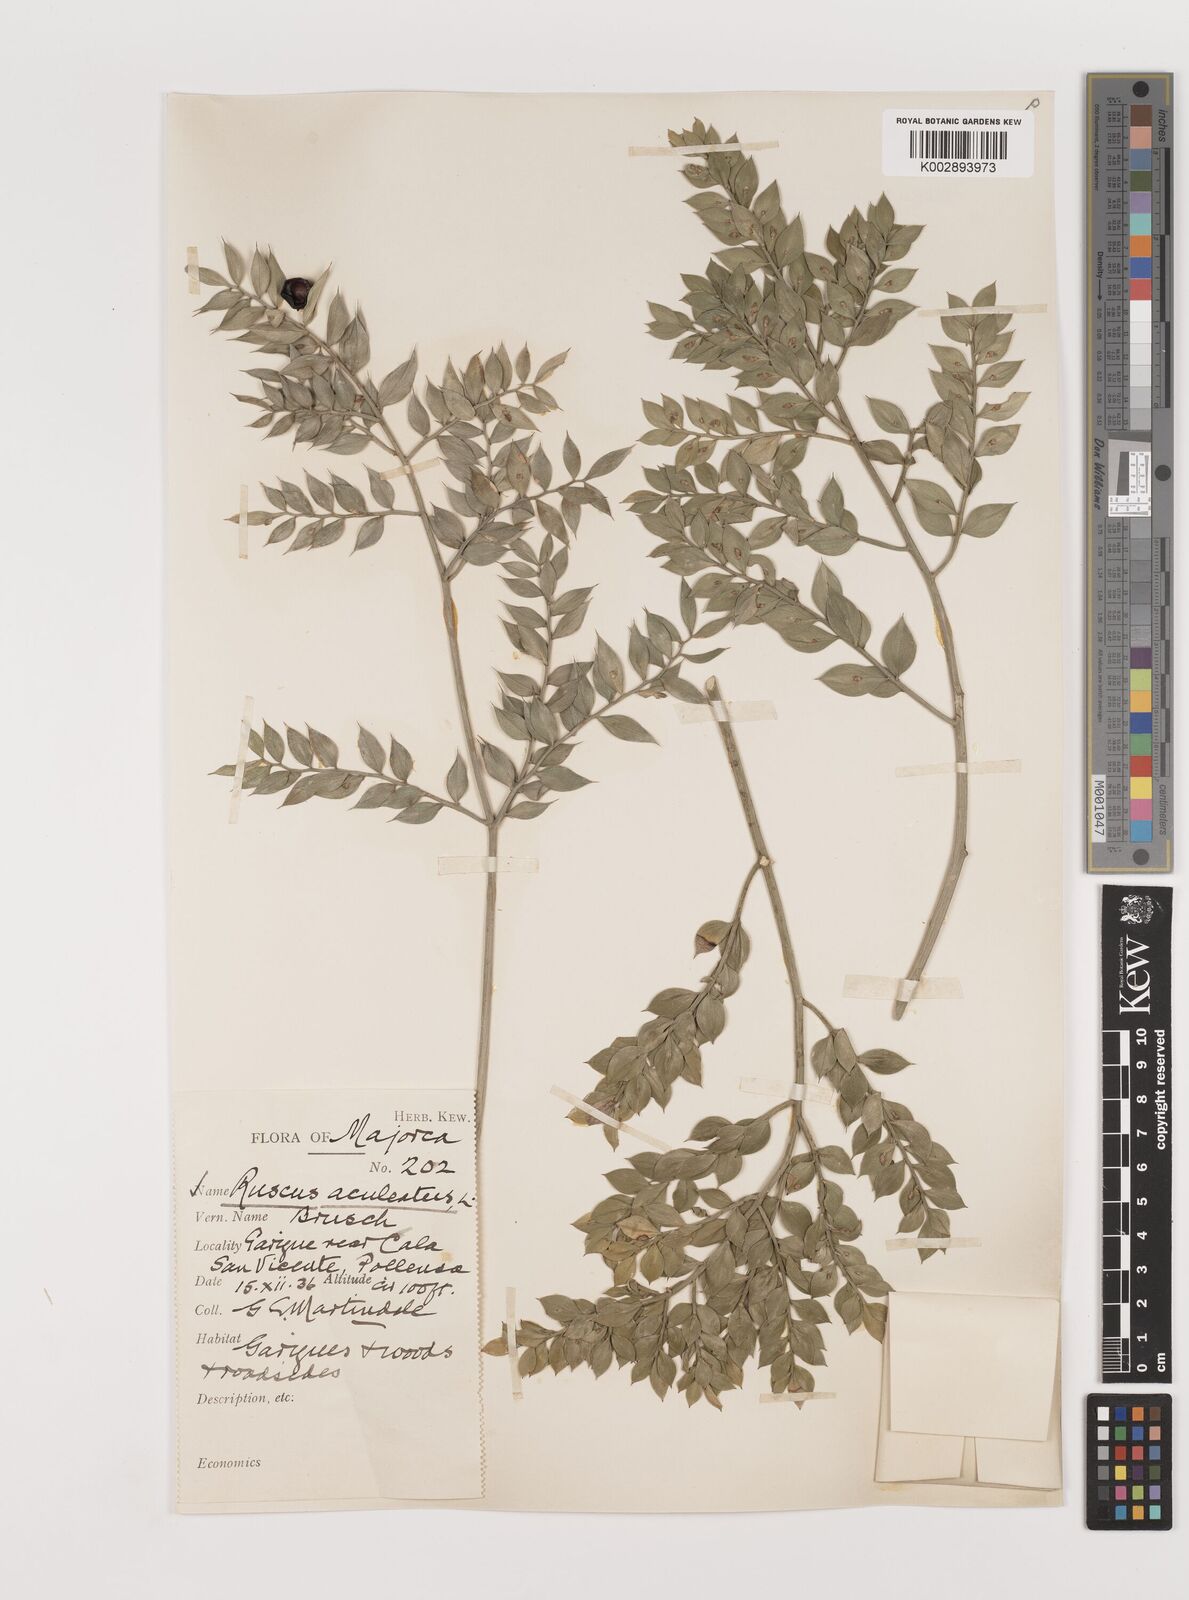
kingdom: Plantae
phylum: Tracheophyta
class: Liliopsida
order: Asparagales
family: Asparagaceae
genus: Ruscus
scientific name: Ruscus aculeatus
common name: Butcher's-broom
